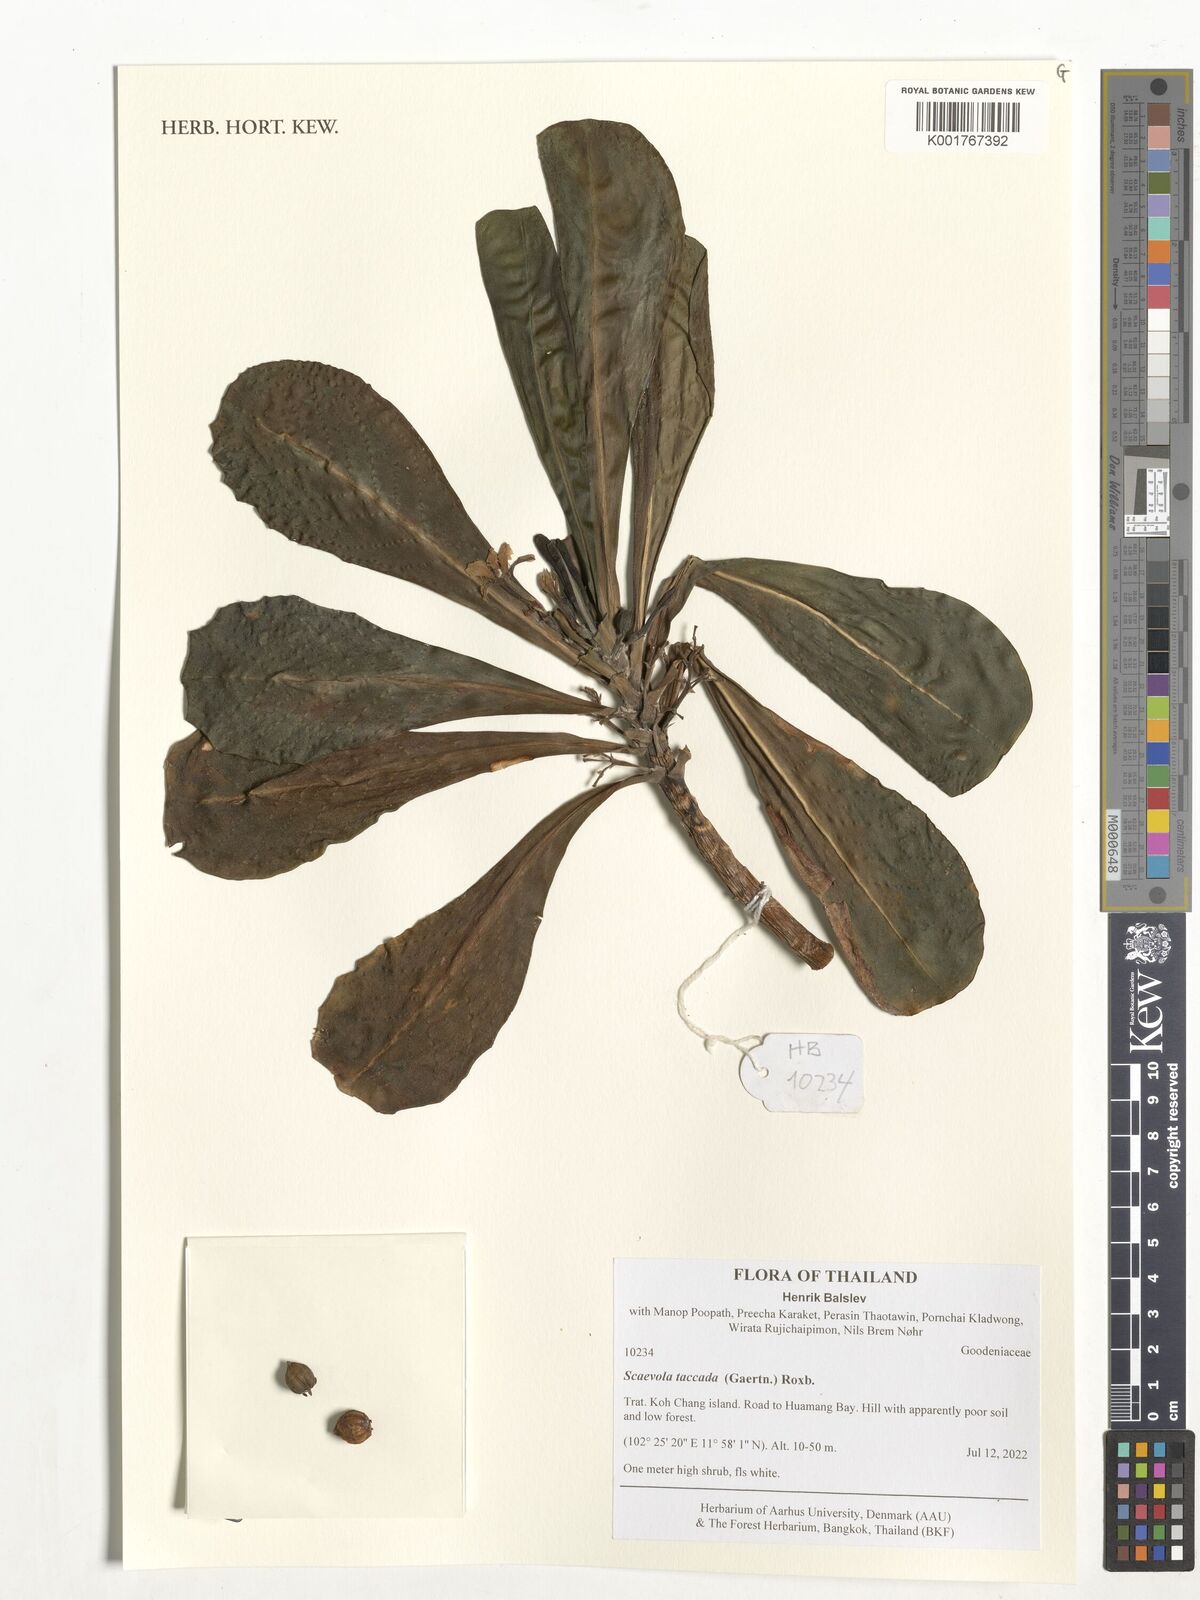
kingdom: Plantae
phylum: Tracheophyta
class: Magnoliopsida
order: Asterales
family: Goodeniaceae
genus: Scaevola
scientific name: Scaevola taccada
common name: Sea lettucetree
